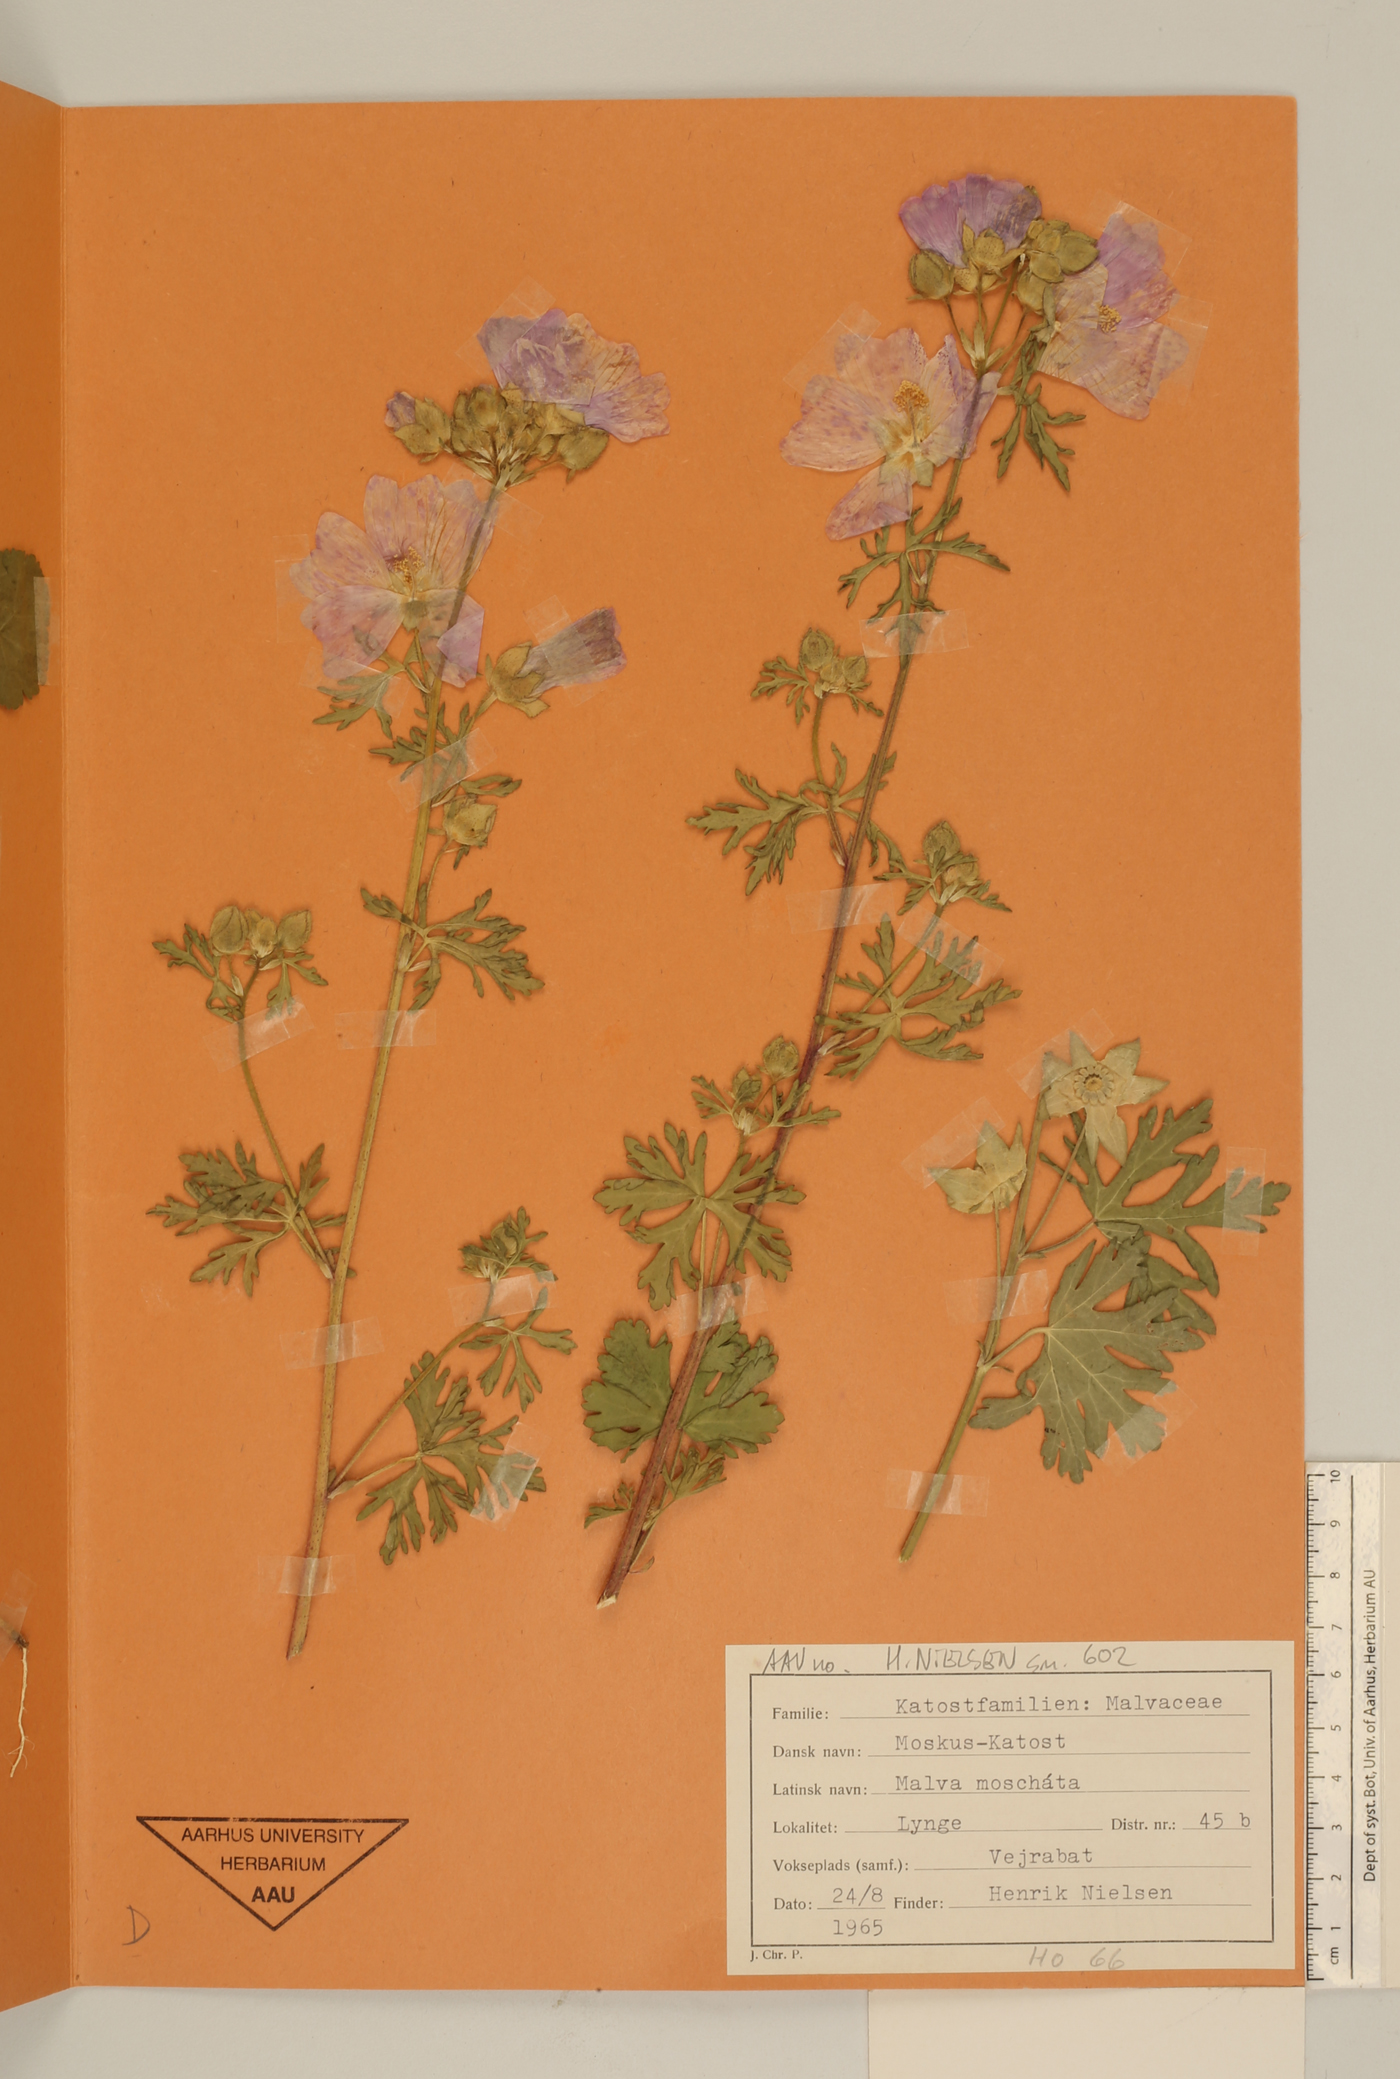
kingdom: Plantae
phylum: Tracheophyta
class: Magnoliopsida
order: Malvales
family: Malvaceae
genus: Malva
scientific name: Malva moschata
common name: Musk mallow
